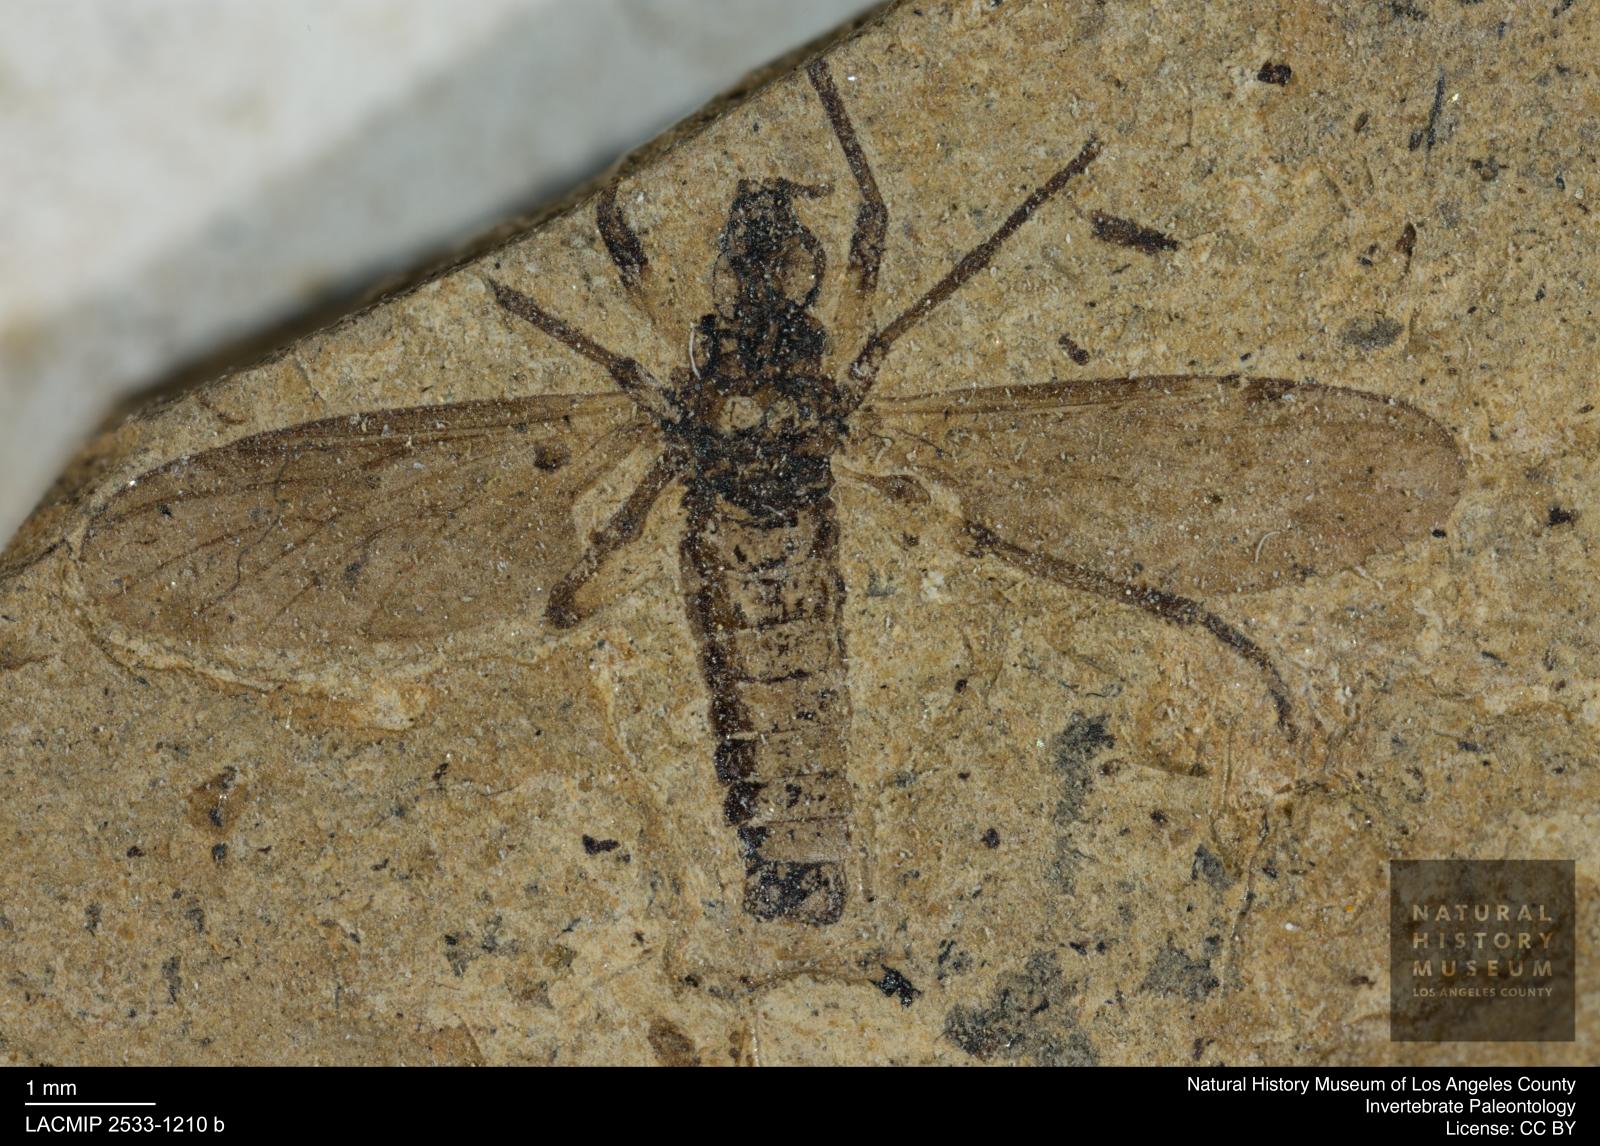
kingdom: Animalia
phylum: Arthropoda
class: Insecta
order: Diptera
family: Bibionidae
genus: Plecia
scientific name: Plecia
